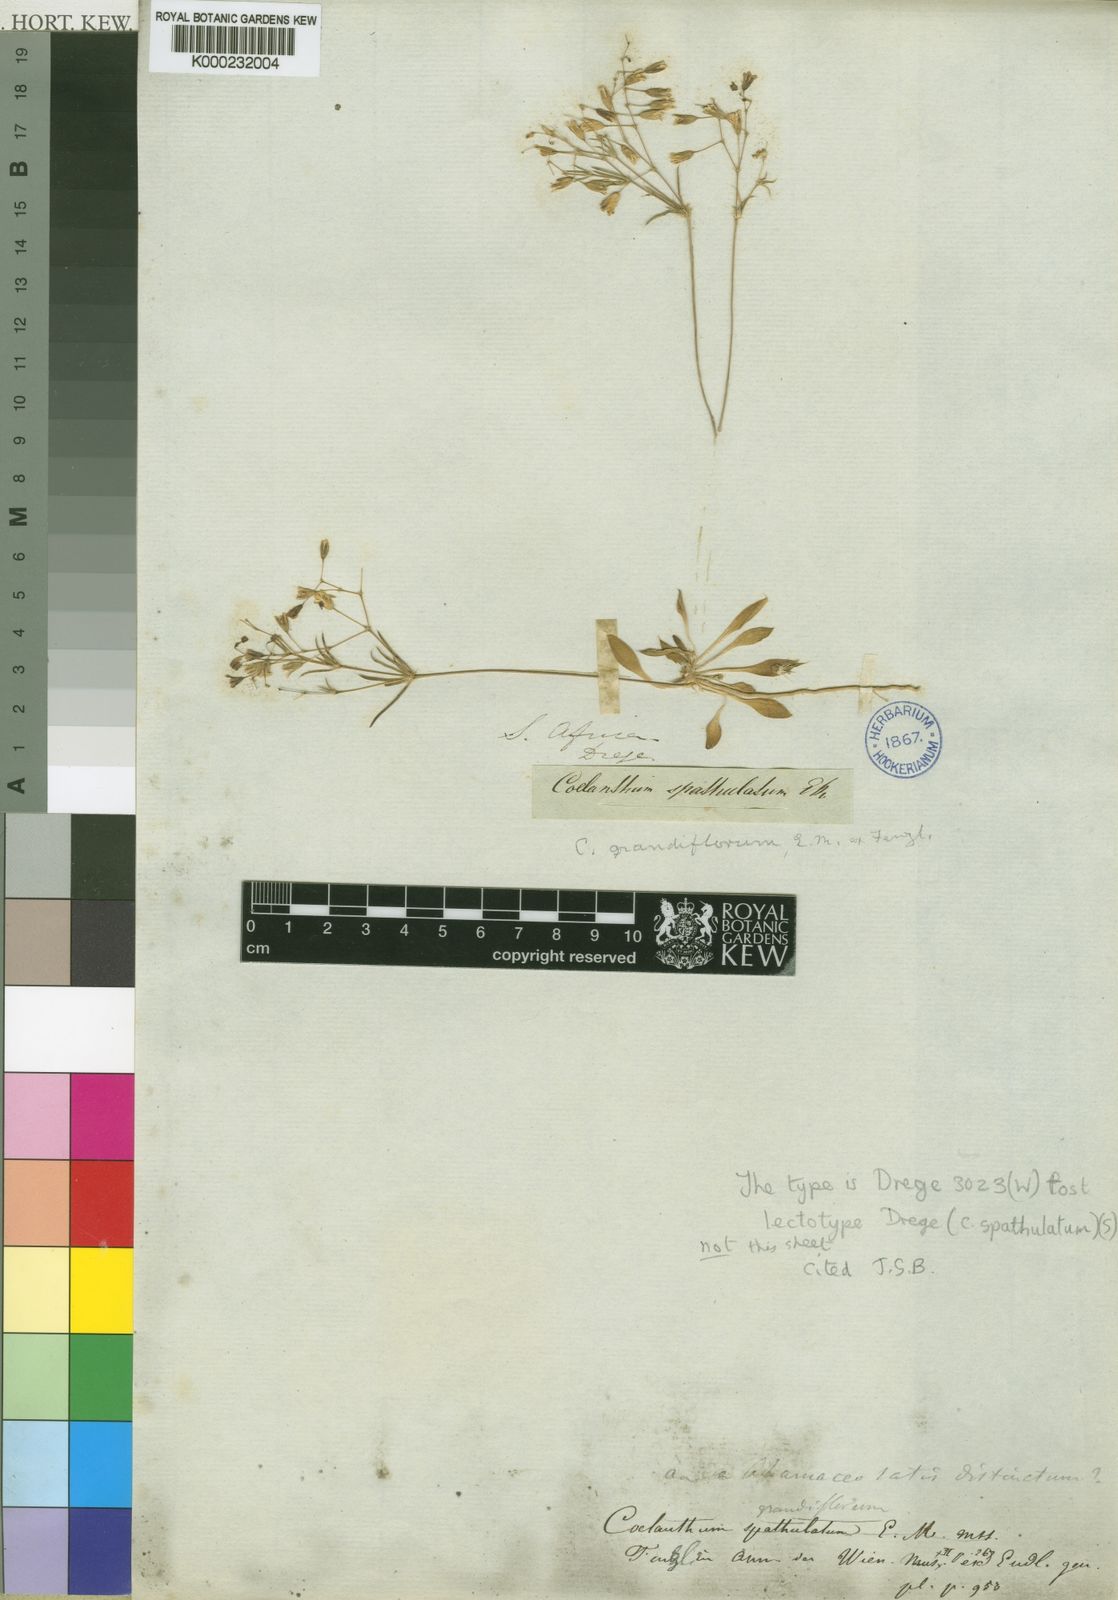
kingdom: Plantae
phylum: Tracheophyta
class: Magnoliopsida
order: Caryophyllales
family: Molluginaceae
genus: Coelanthum
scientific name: Coelanthum grandiflorum
